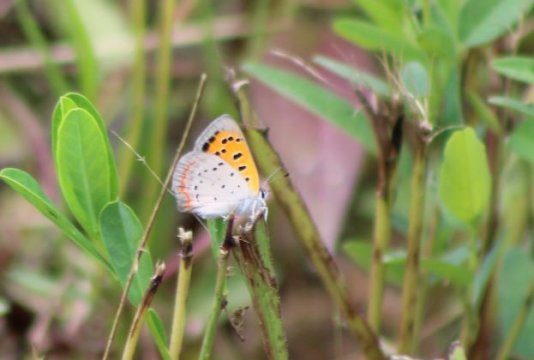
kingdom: Animalia
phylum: Arthropoda
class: Insecta
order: Lepidoptera
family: Lycaenidae
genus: Lycaena
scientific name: Lycaena phlaeas
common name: American Copper
